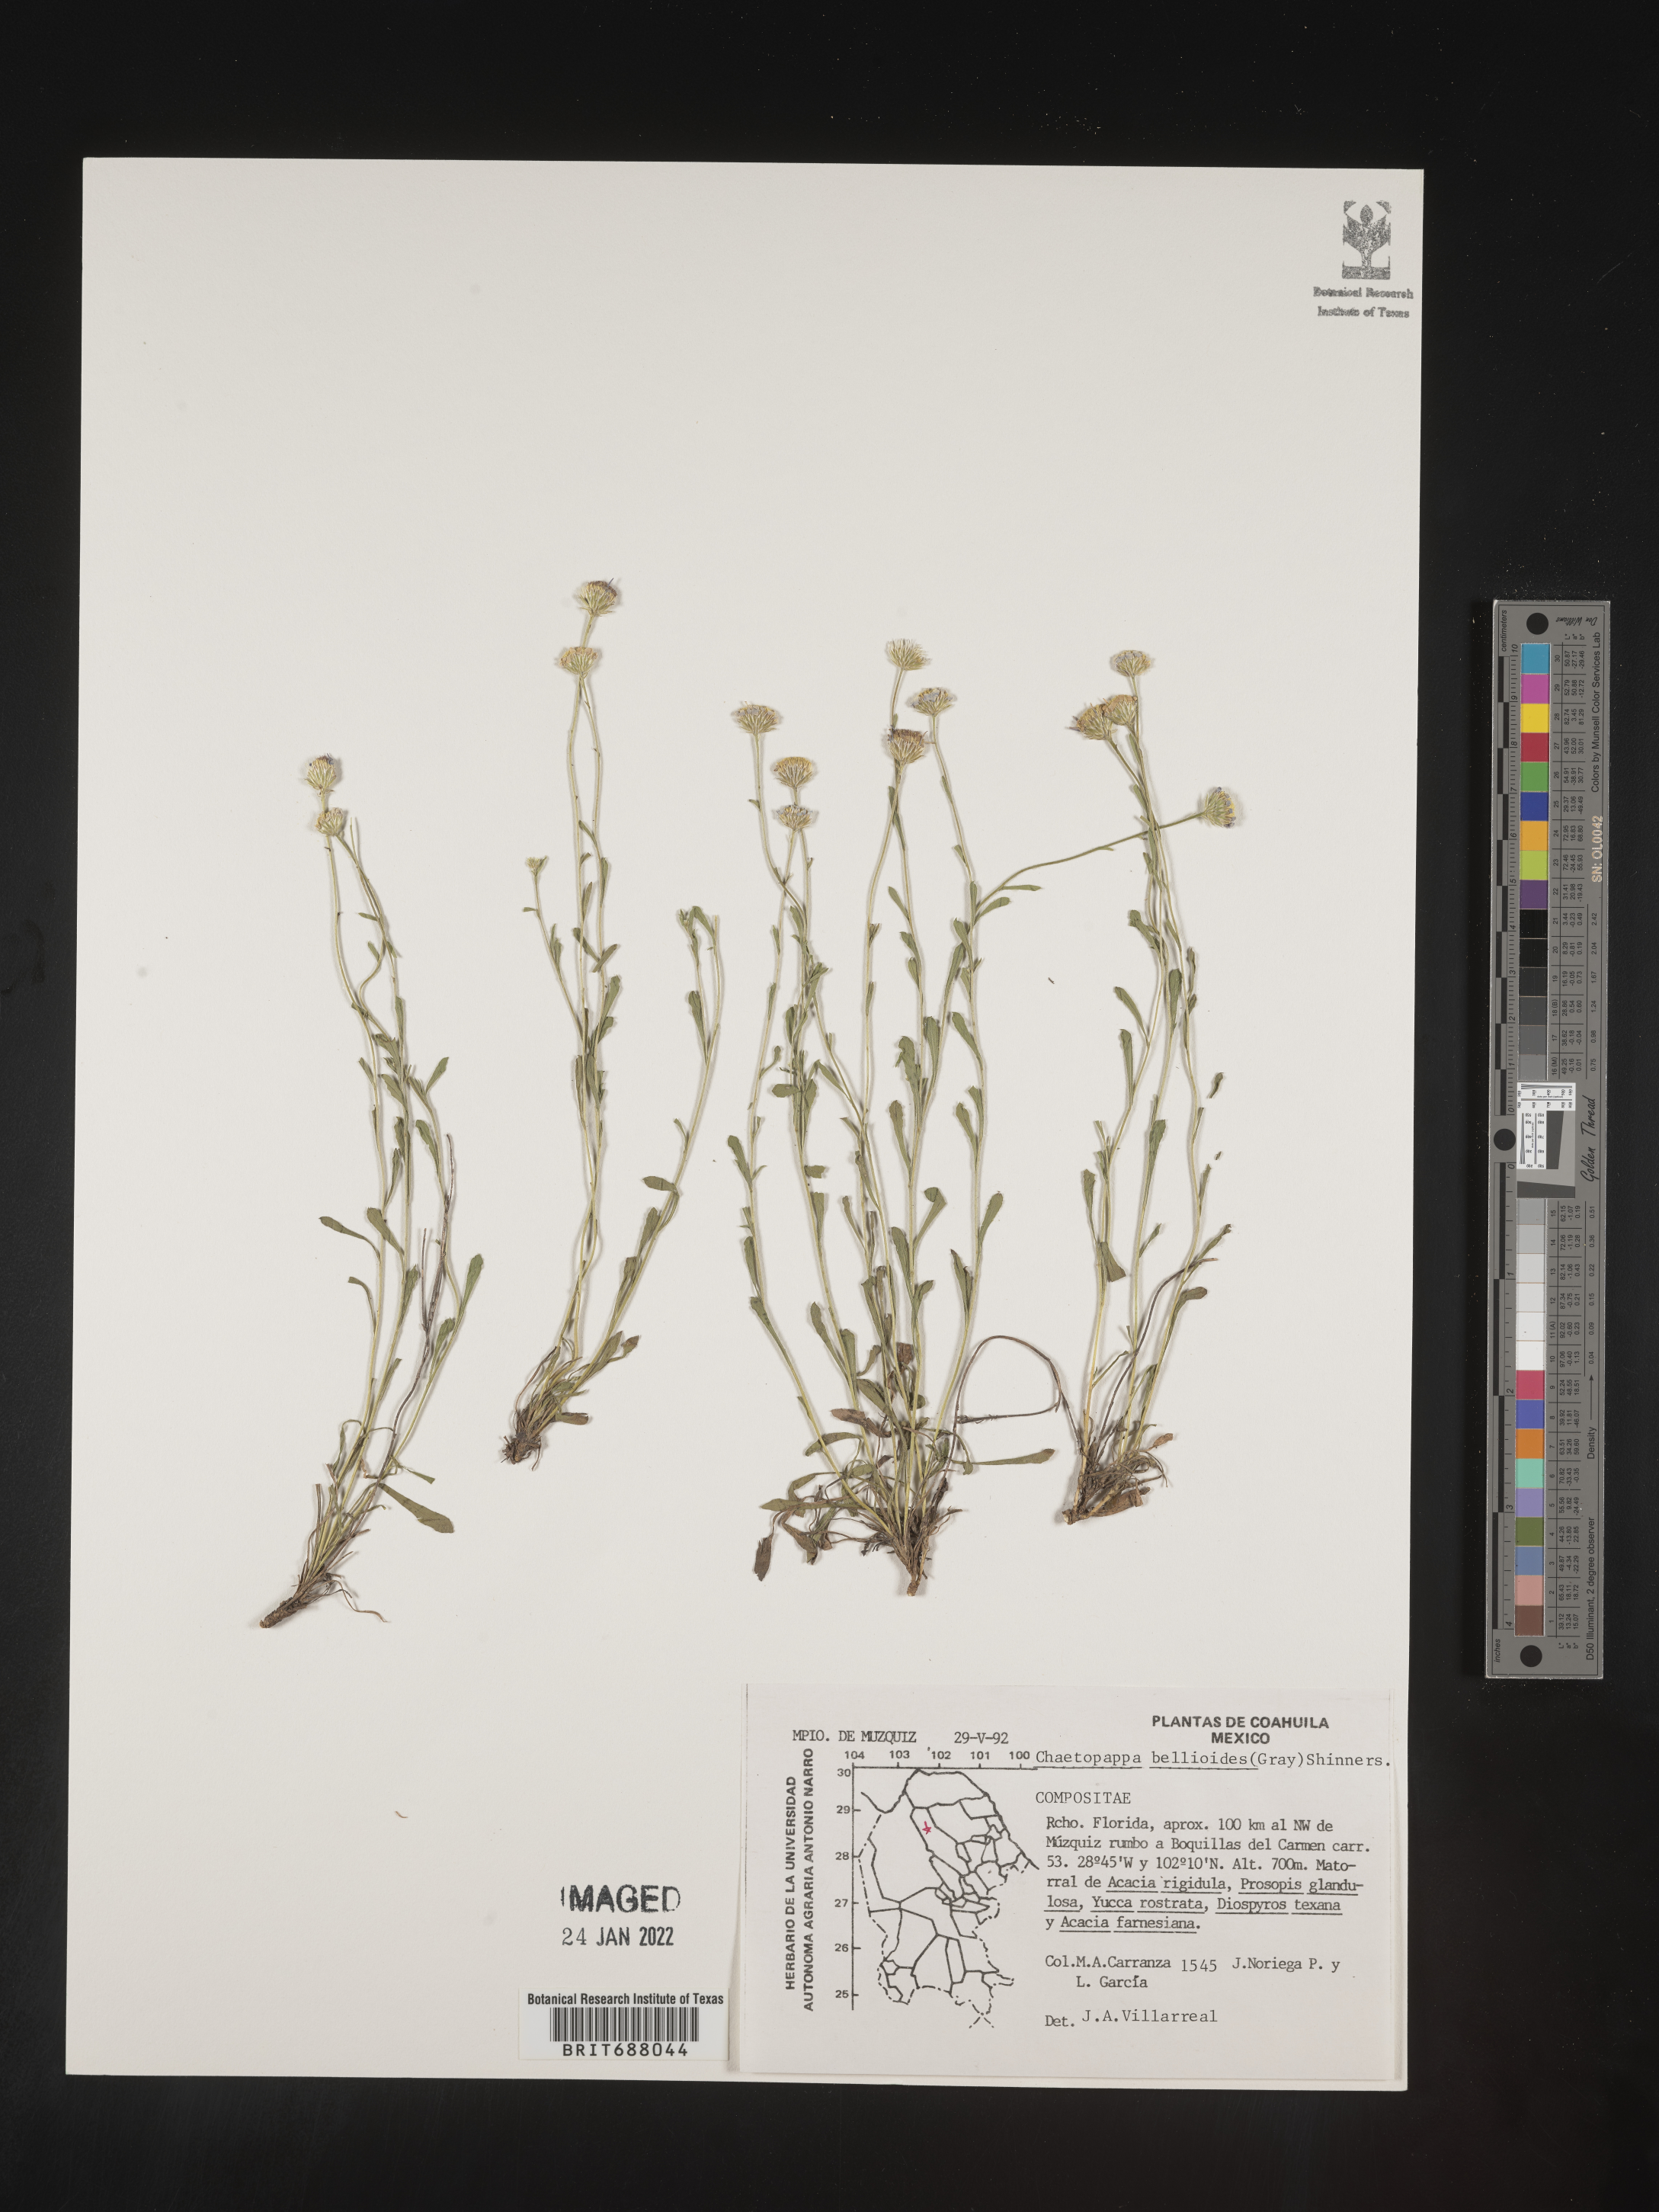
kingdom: Plantae
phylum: Tracheophyta
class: Magnoliopsida
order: Asterales
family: Asteraceae
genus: Chaetopappa
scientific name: Chaetopappa
